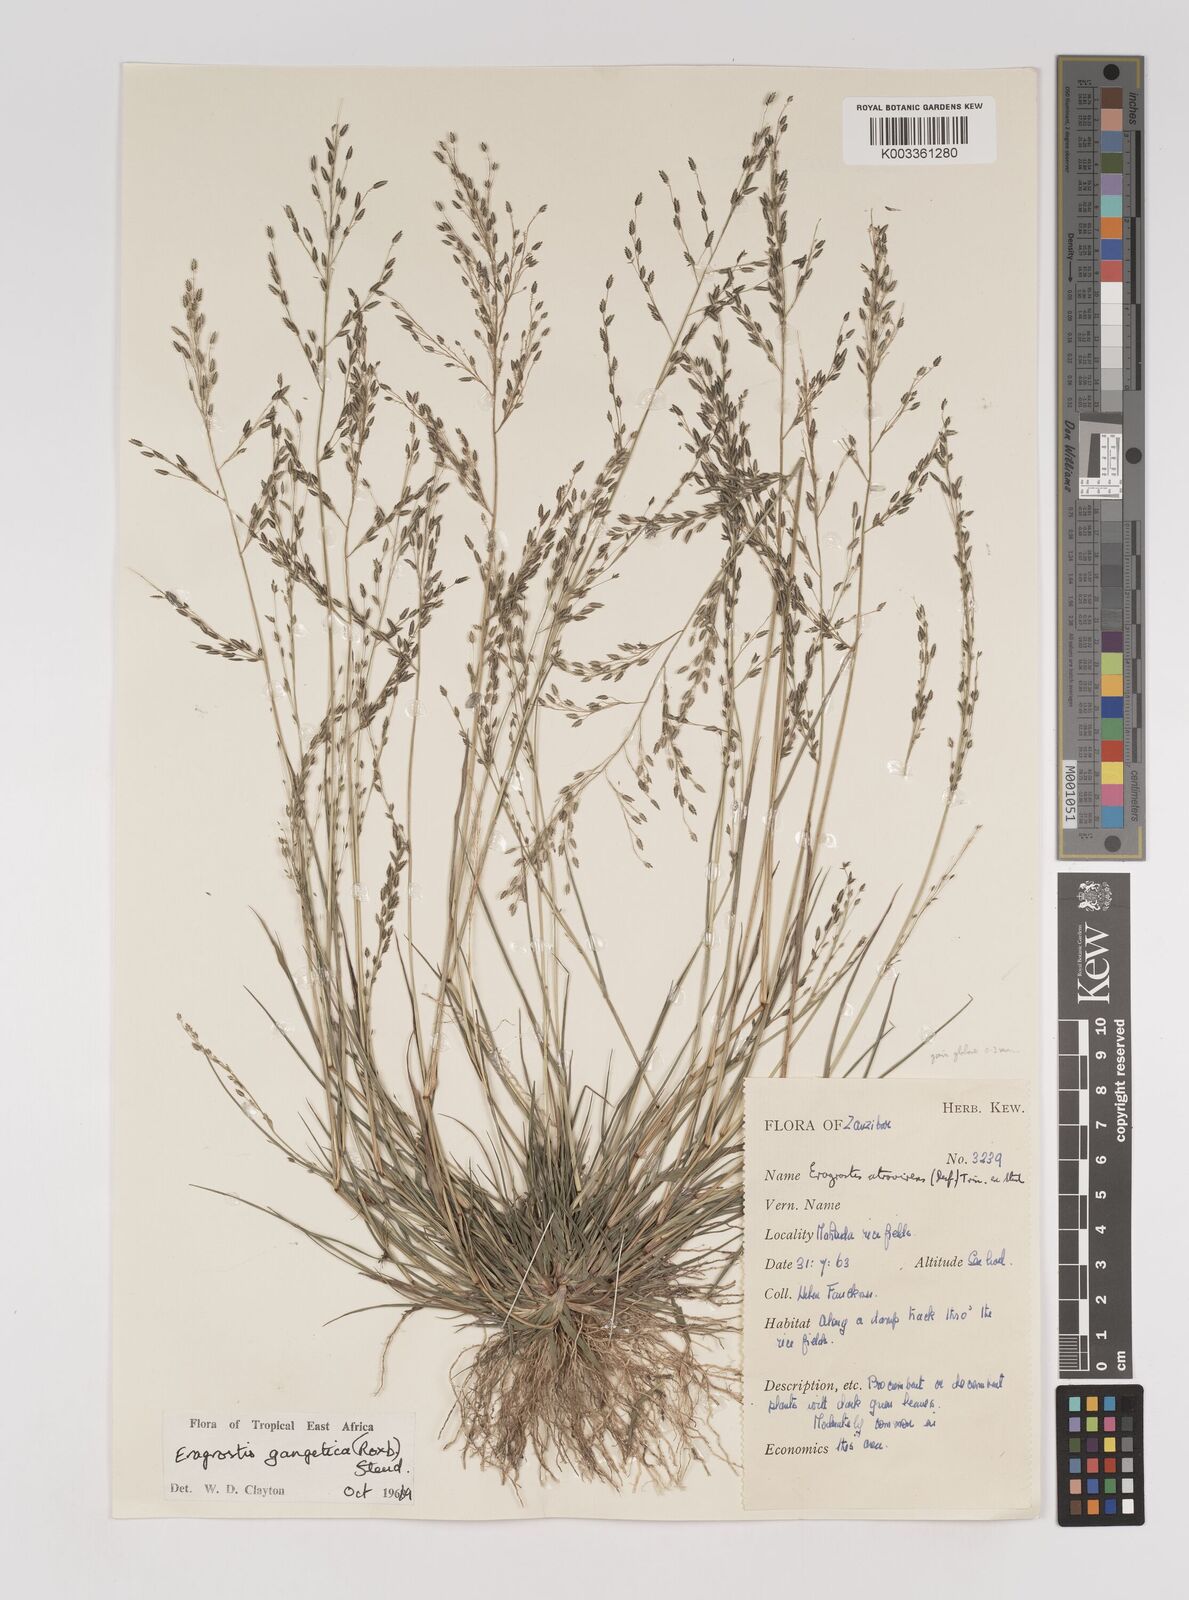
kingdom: Plantae
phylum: Tracheophyta
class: Liliopsida
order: Poales
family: Poaceae
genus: Eragrostis
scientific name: Eragrostis gangetica
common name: Slimflower lovegrass
